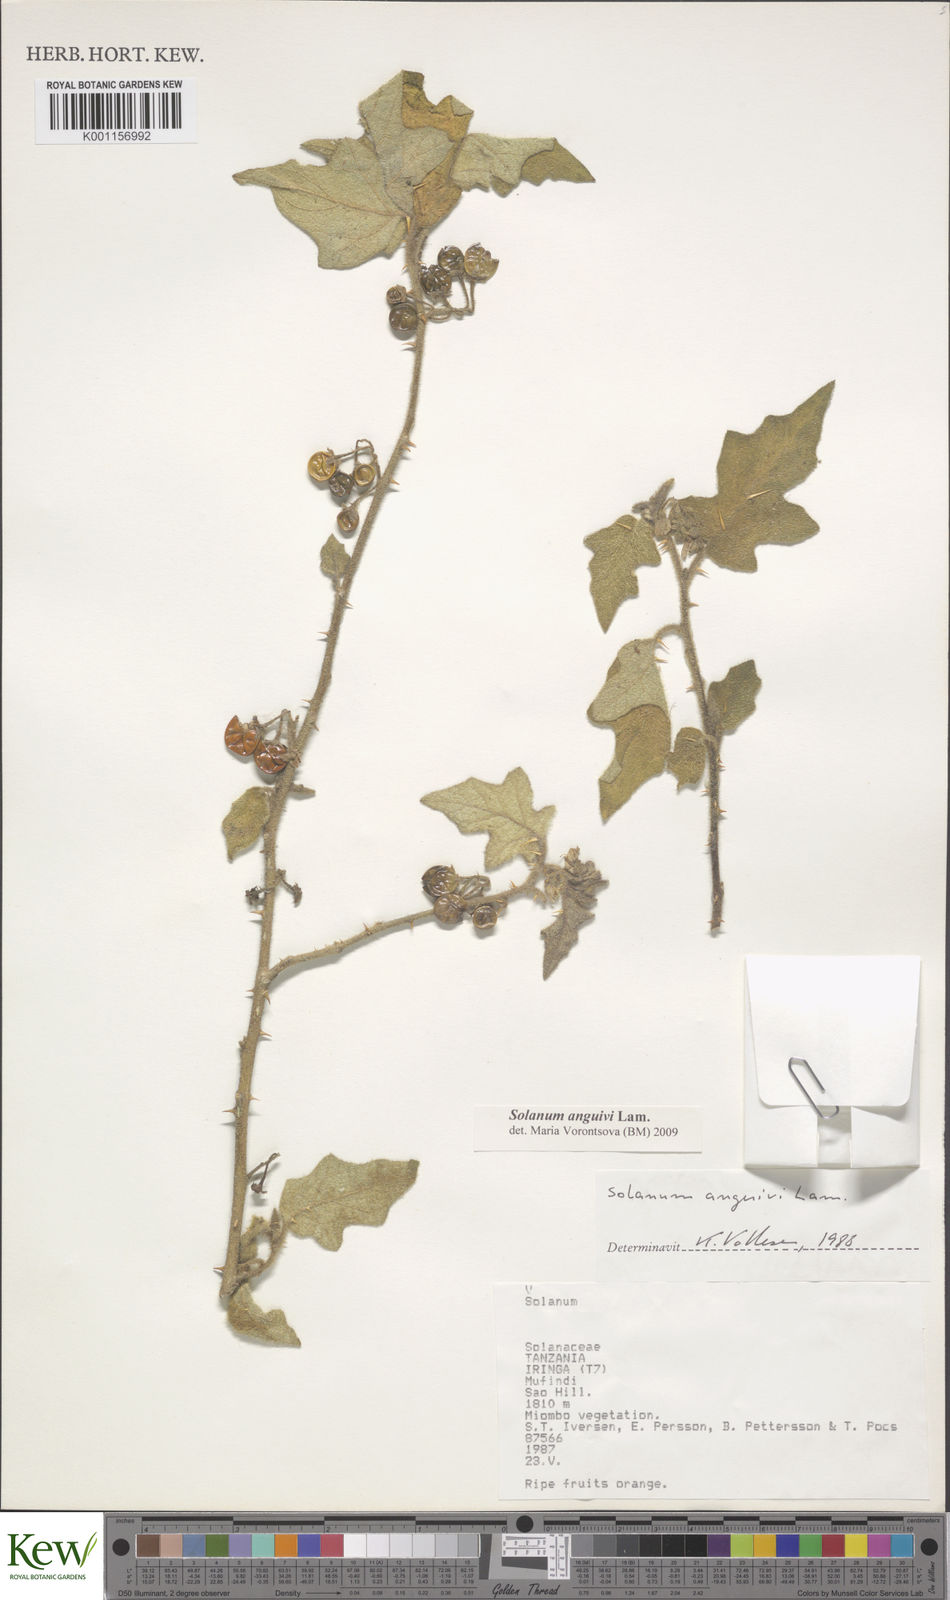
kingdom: Plantae
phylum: Tracheophyta
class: Magnoliopsida
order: Solanales
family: Solanaceae
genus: Solanum
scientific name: Solanum anguivi
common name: Forest bitterberry
